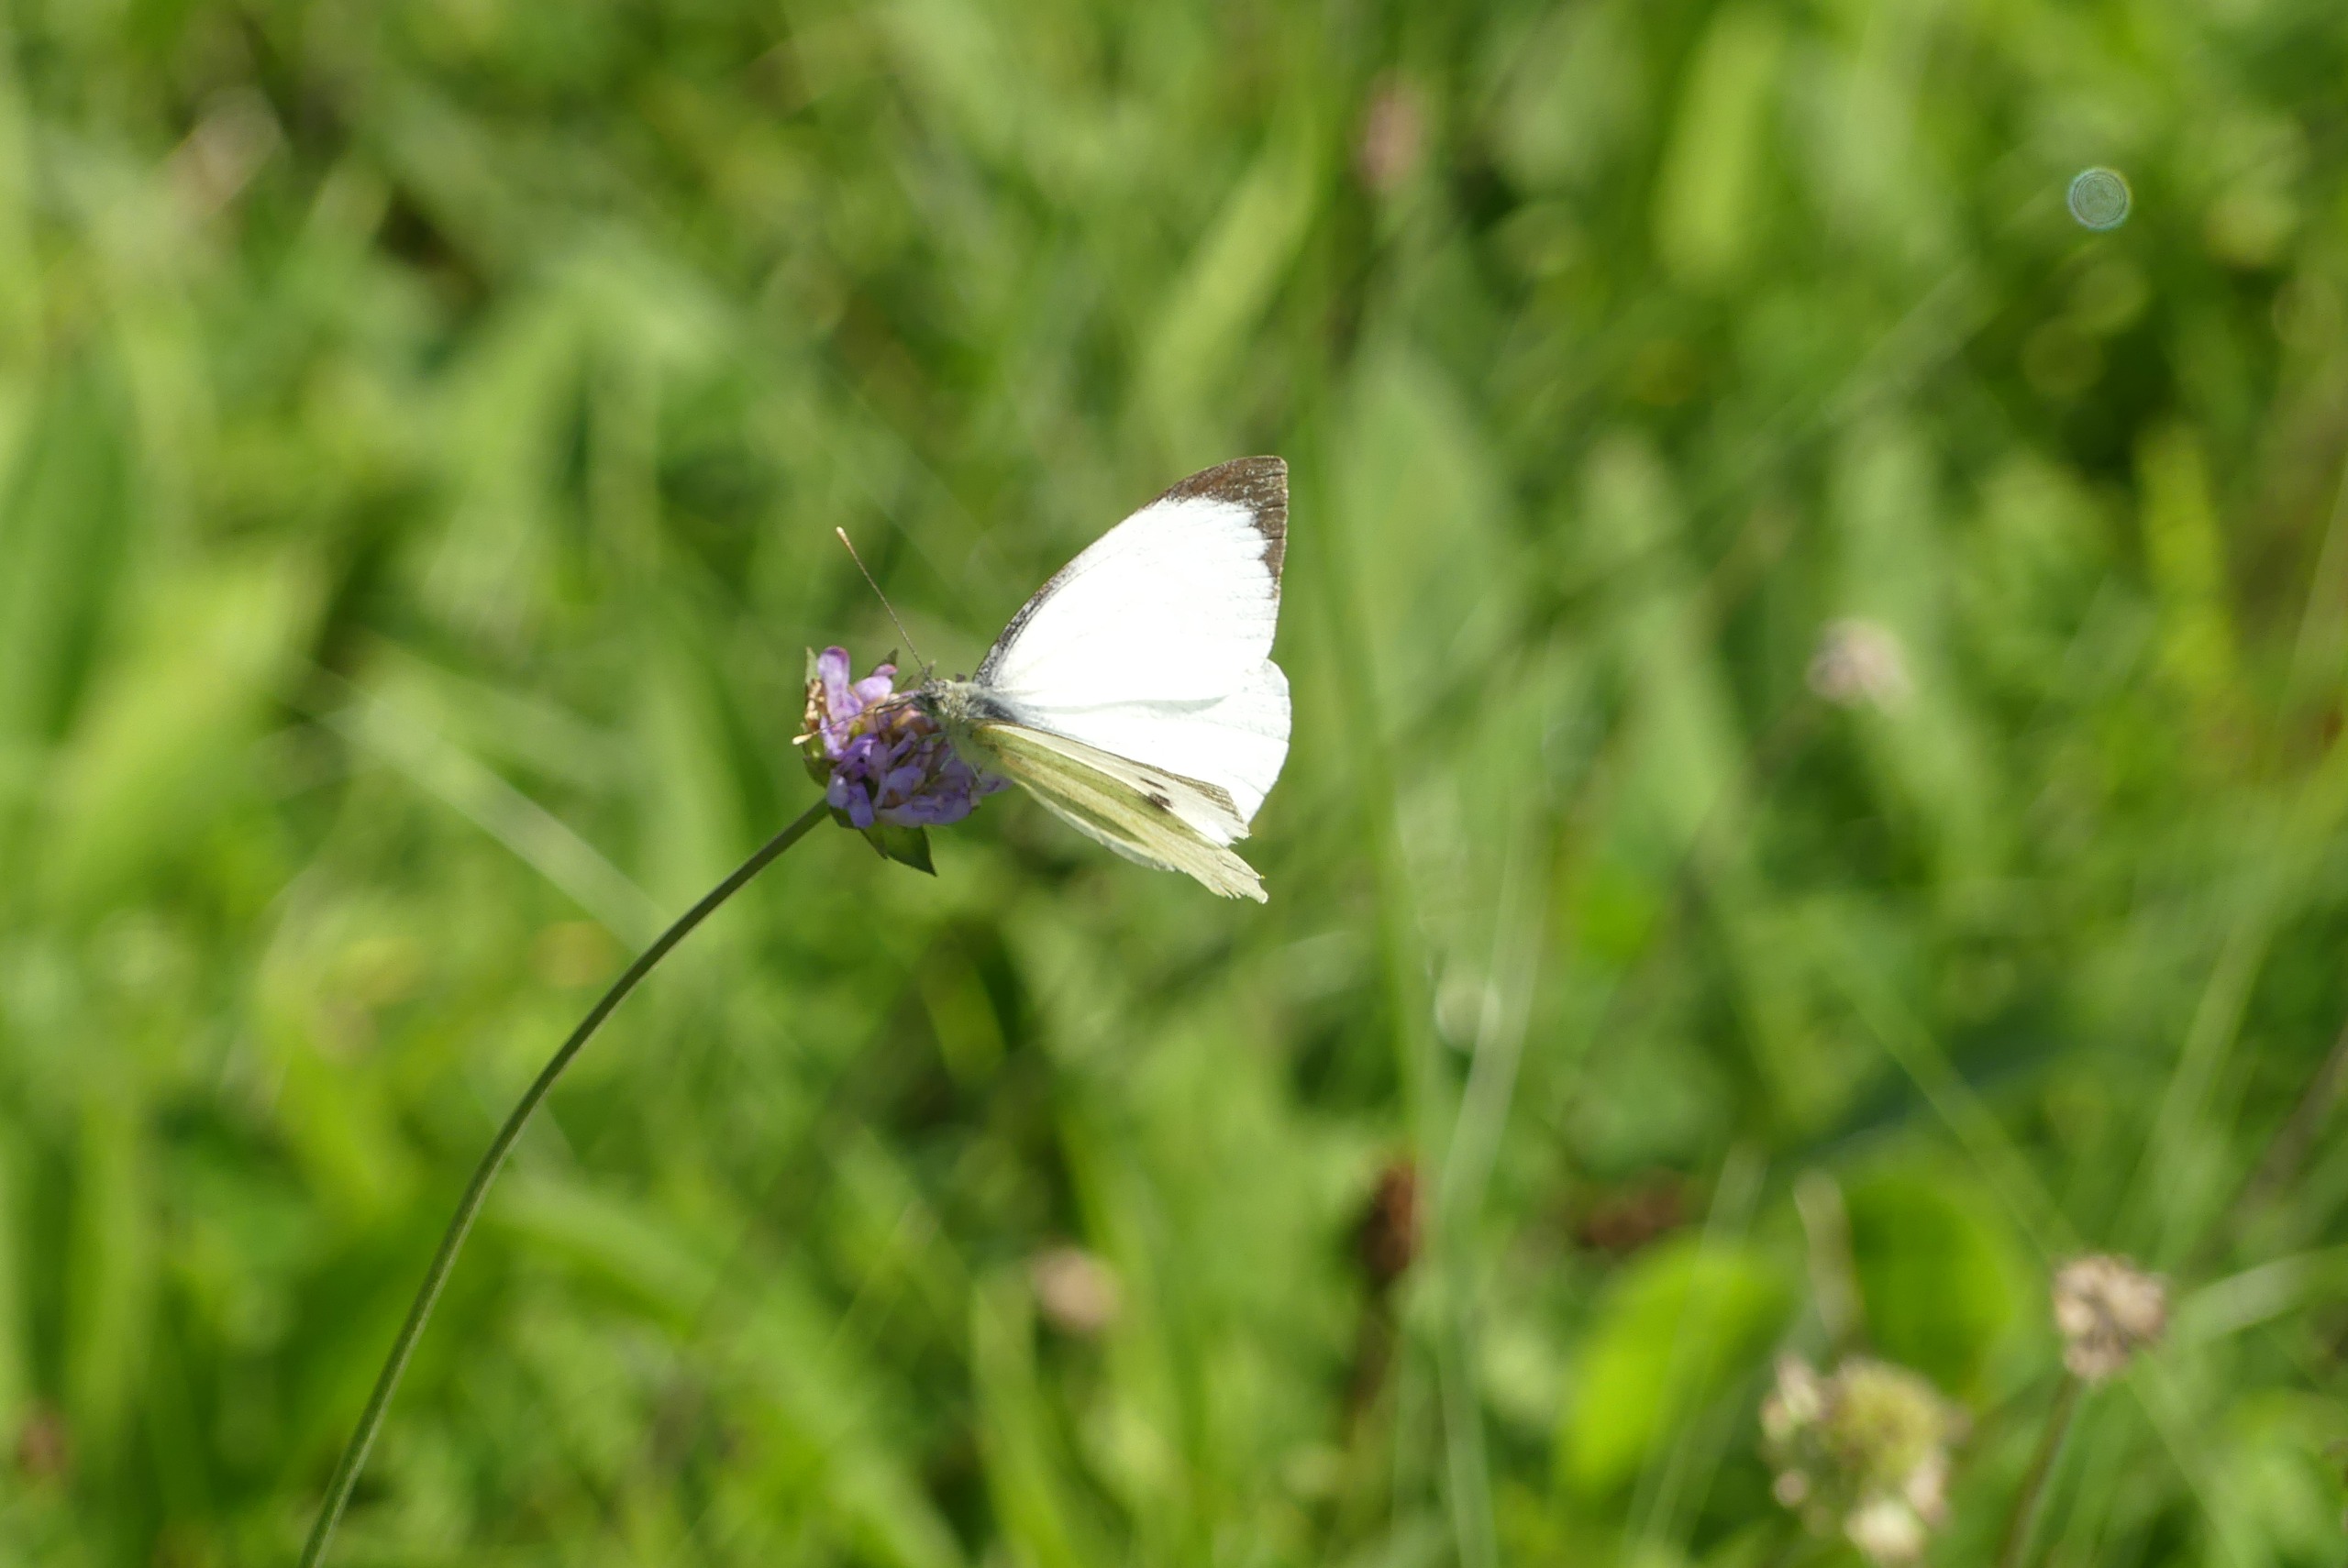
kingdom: Animalia
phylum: Arthropoda
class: Insecta
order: Lepidoptera
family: Pieridae
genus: Pieris
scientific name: Pieris brassicae
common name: Stor kålsommerfugl
